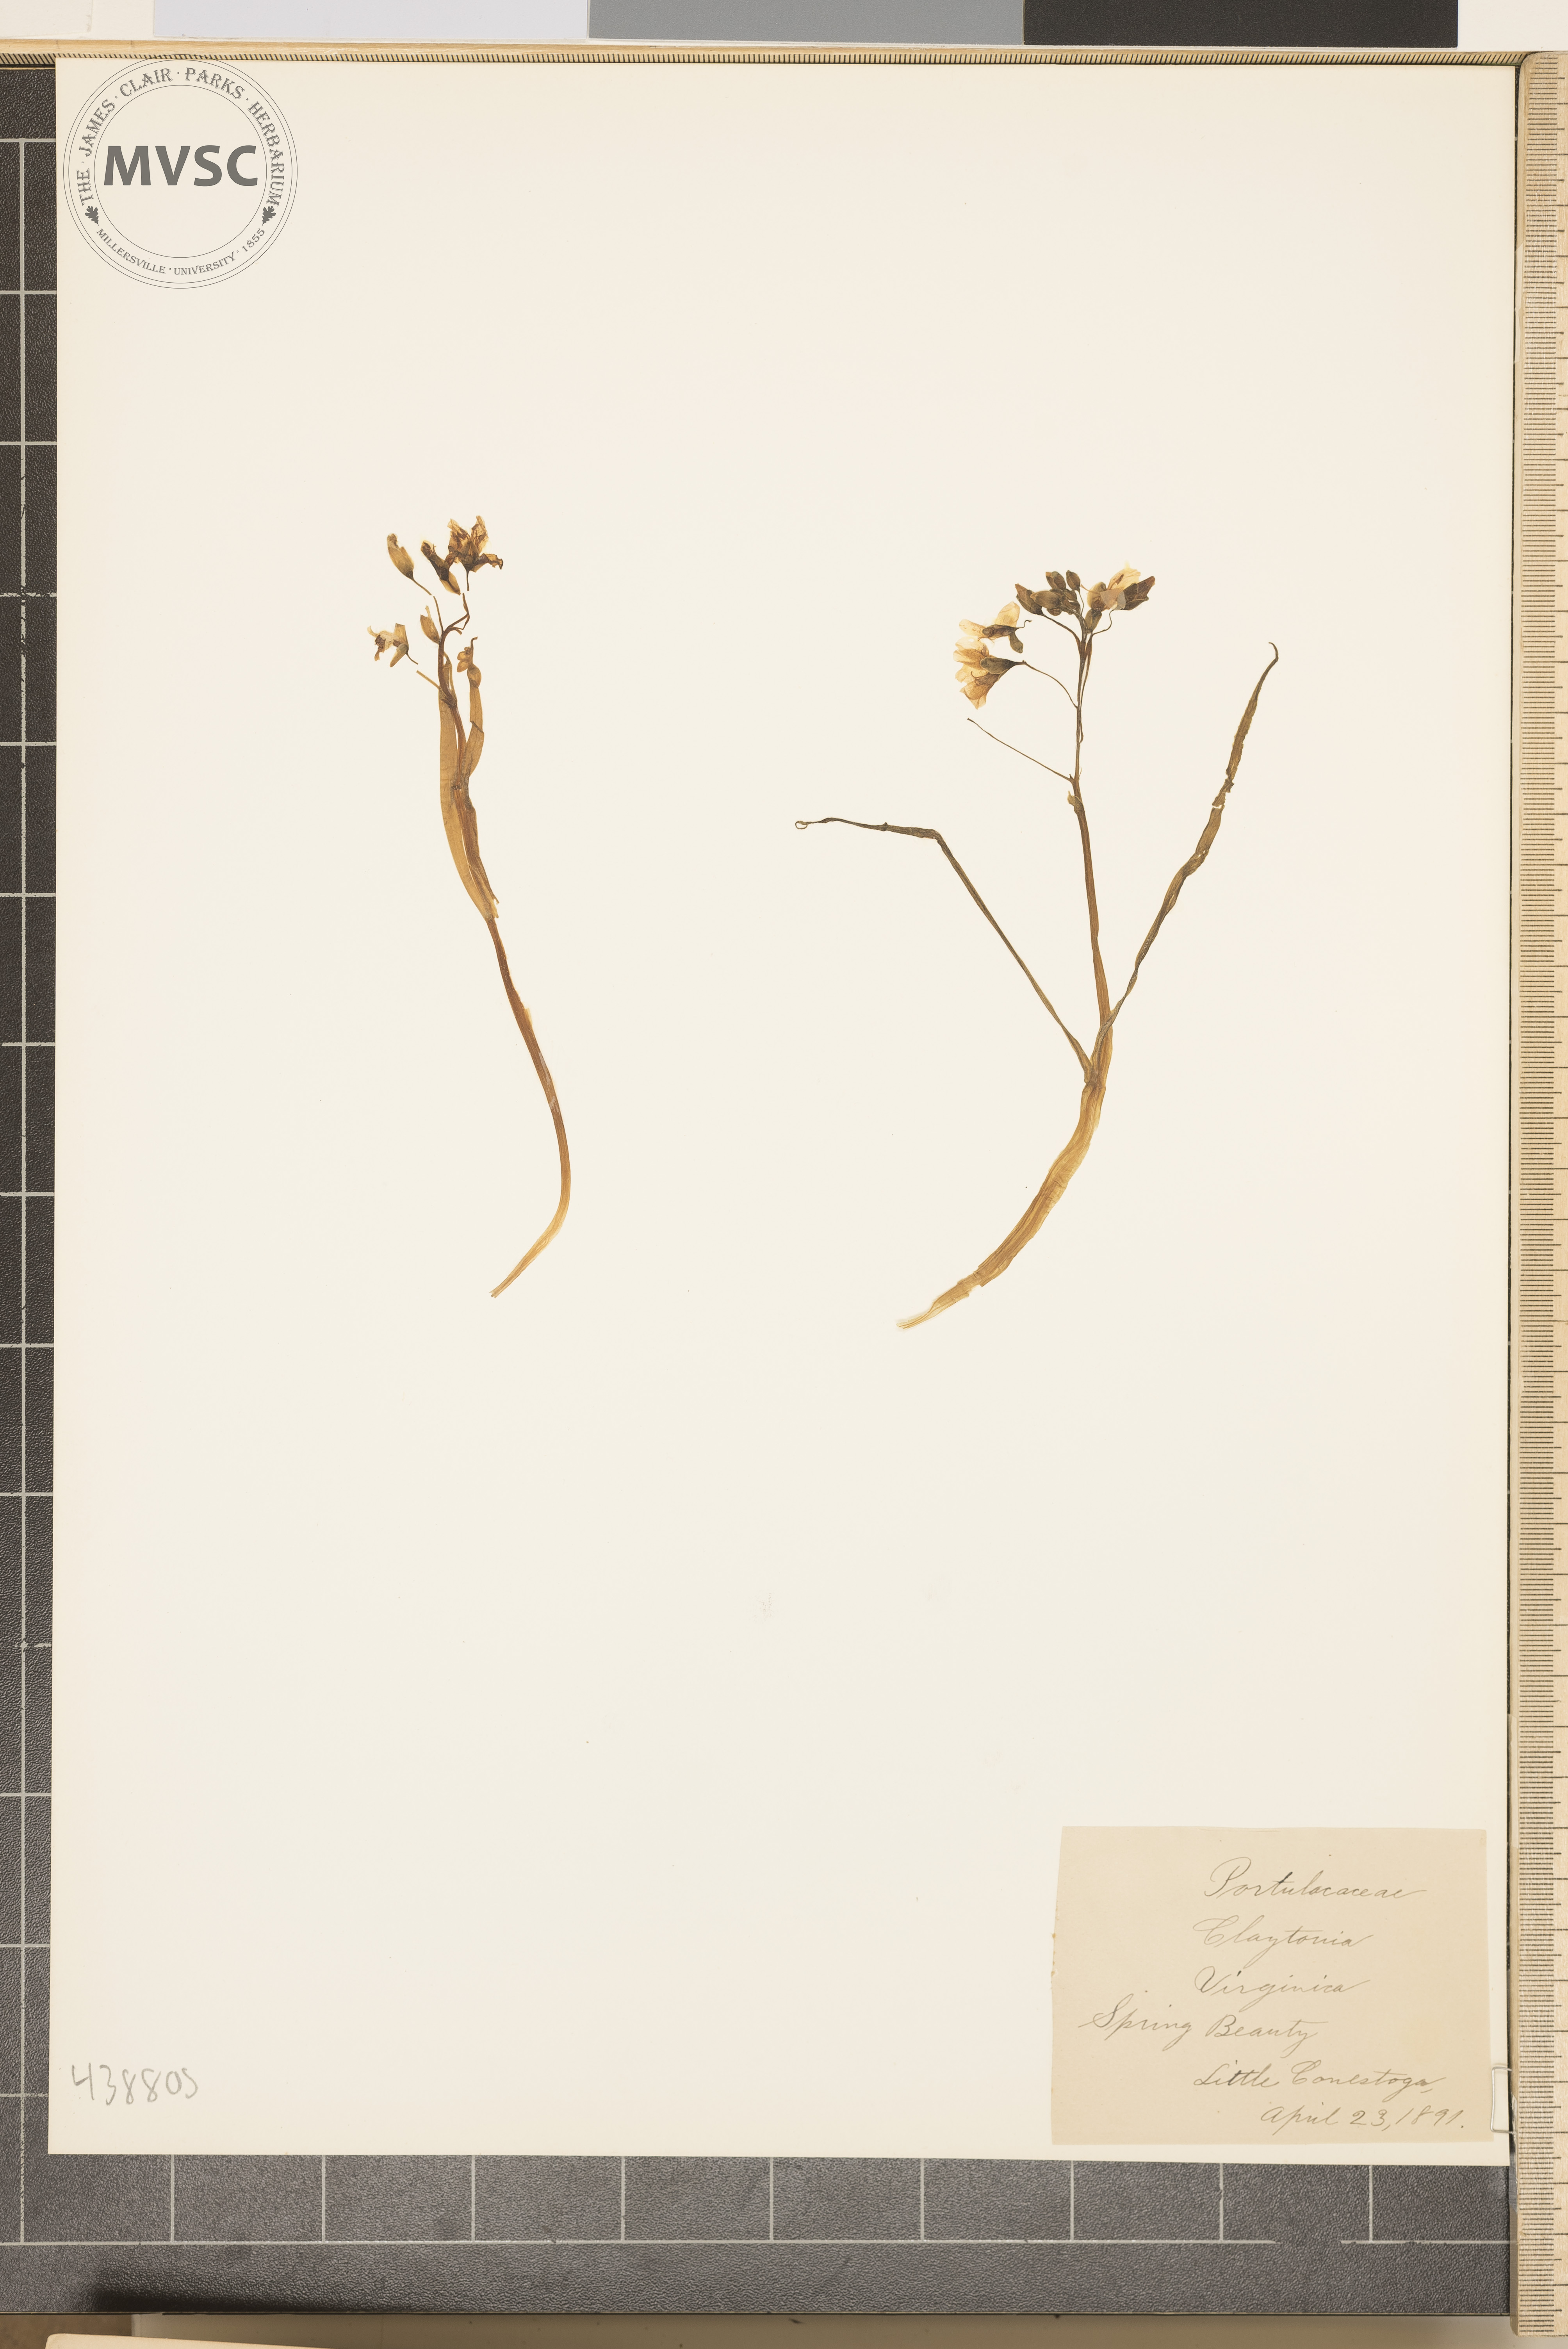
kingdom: Plantae
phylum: Tracheophyta
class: Magnoliopsida
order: Caryophyllales
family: Montiaceae
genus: Claytonia
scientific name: Claytonia virginica
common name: Spring beauty
